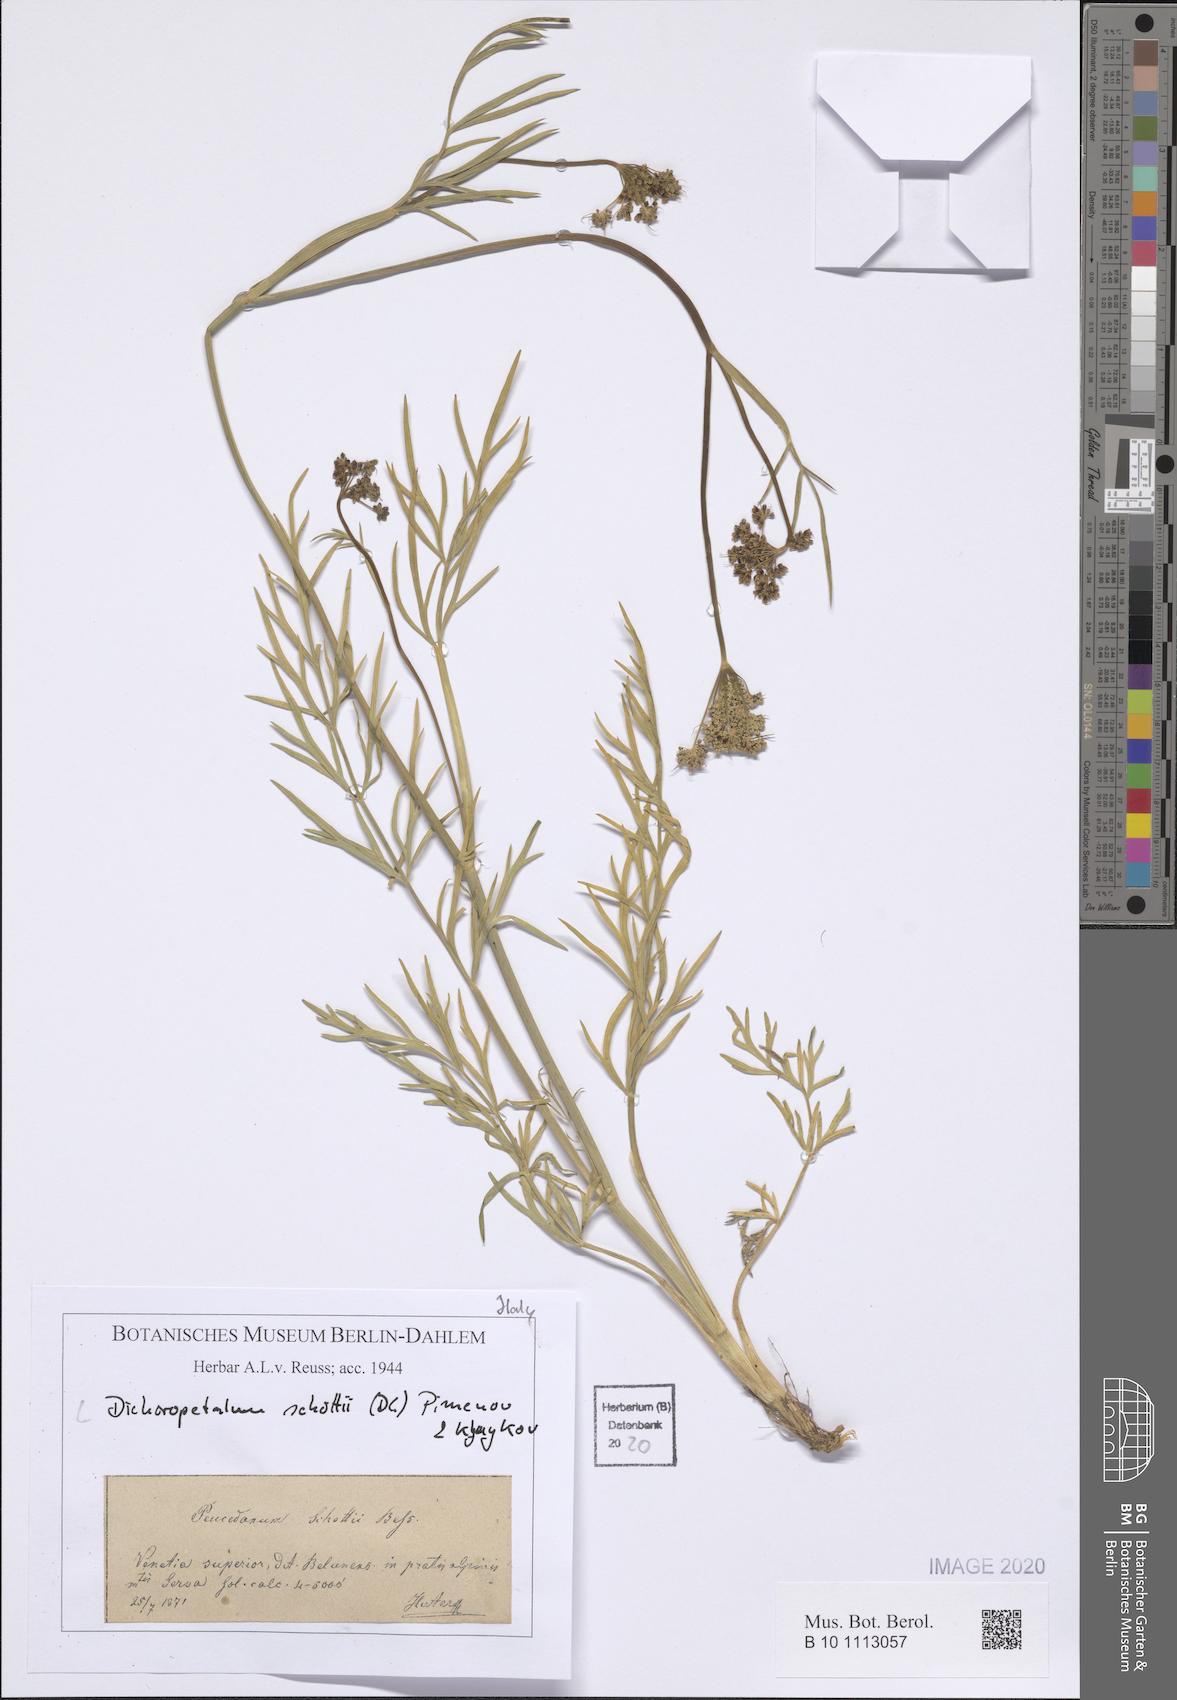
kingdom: Plantae
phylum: Tracheophyta
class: Magnoliopsida
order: Apiales
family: Apiaceae
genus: Dichoropetalum
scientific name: Dichoropetalum schottii
